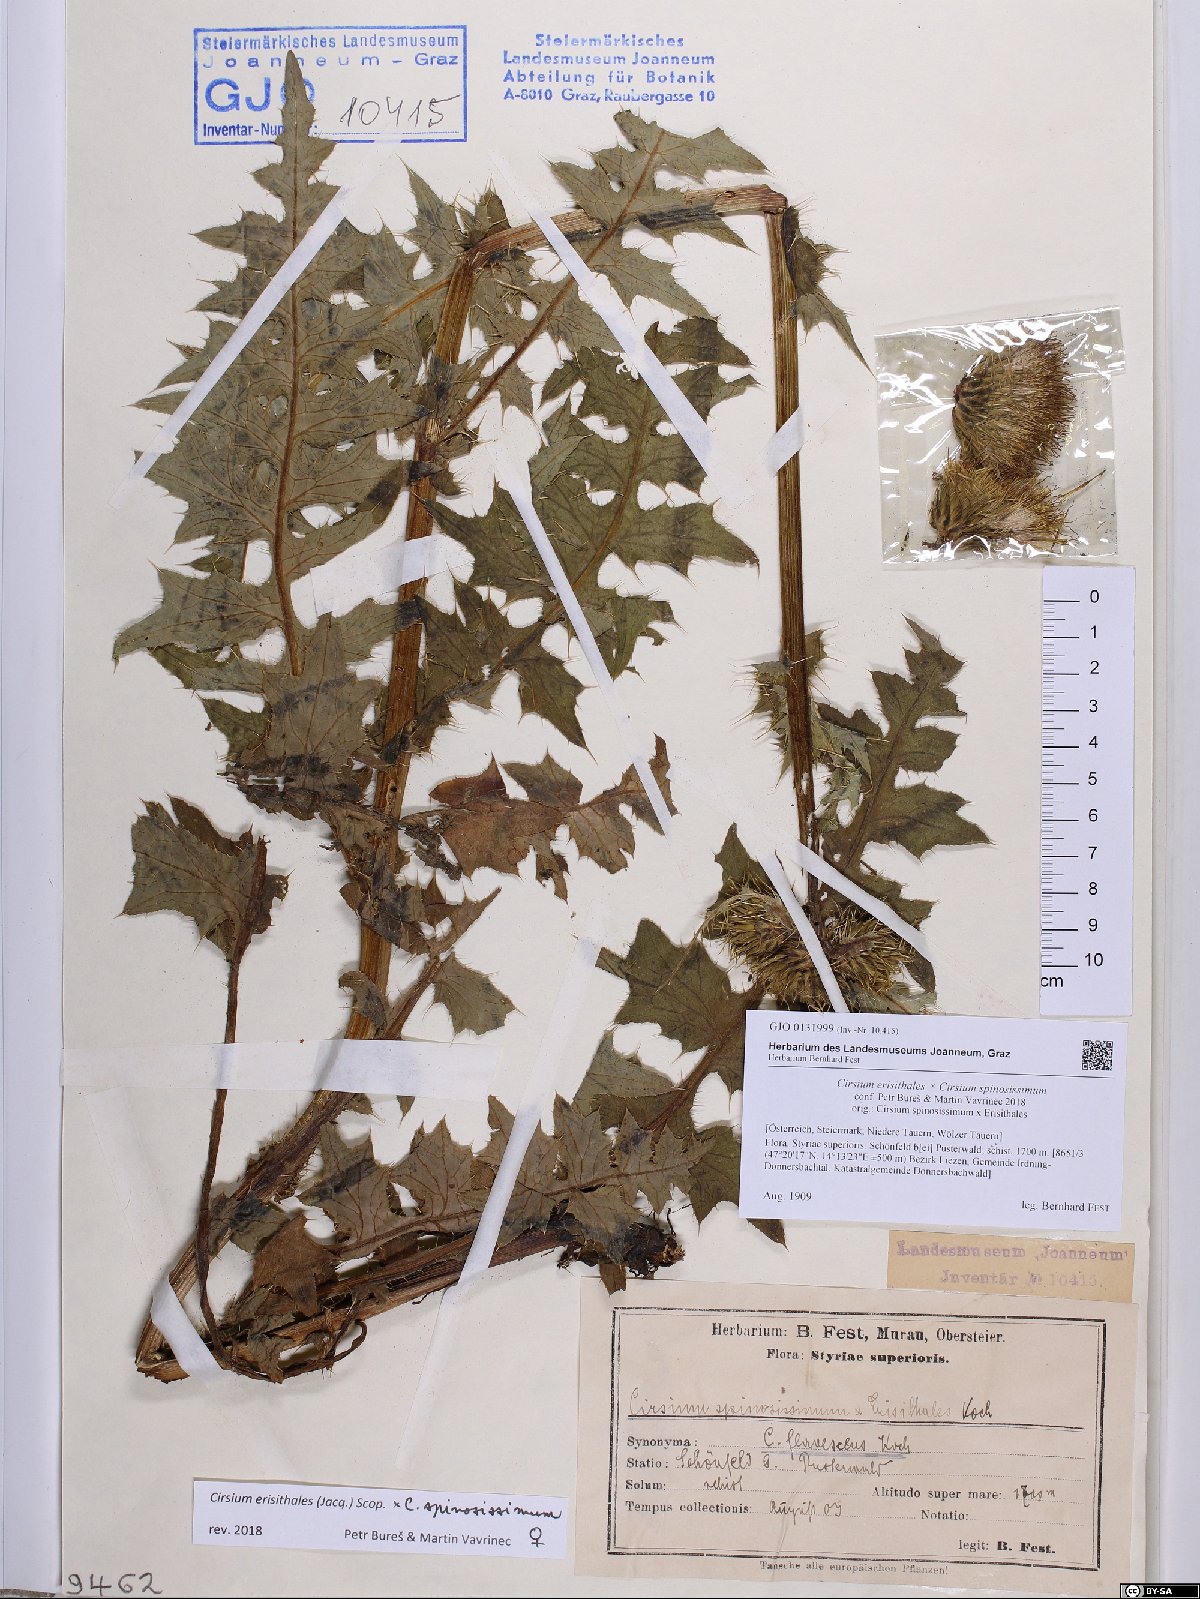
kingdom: Plantae
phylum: Tracheophyta
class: Magnoliopsida
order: Asterales
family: Asteraceae
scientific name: Asteraceae
